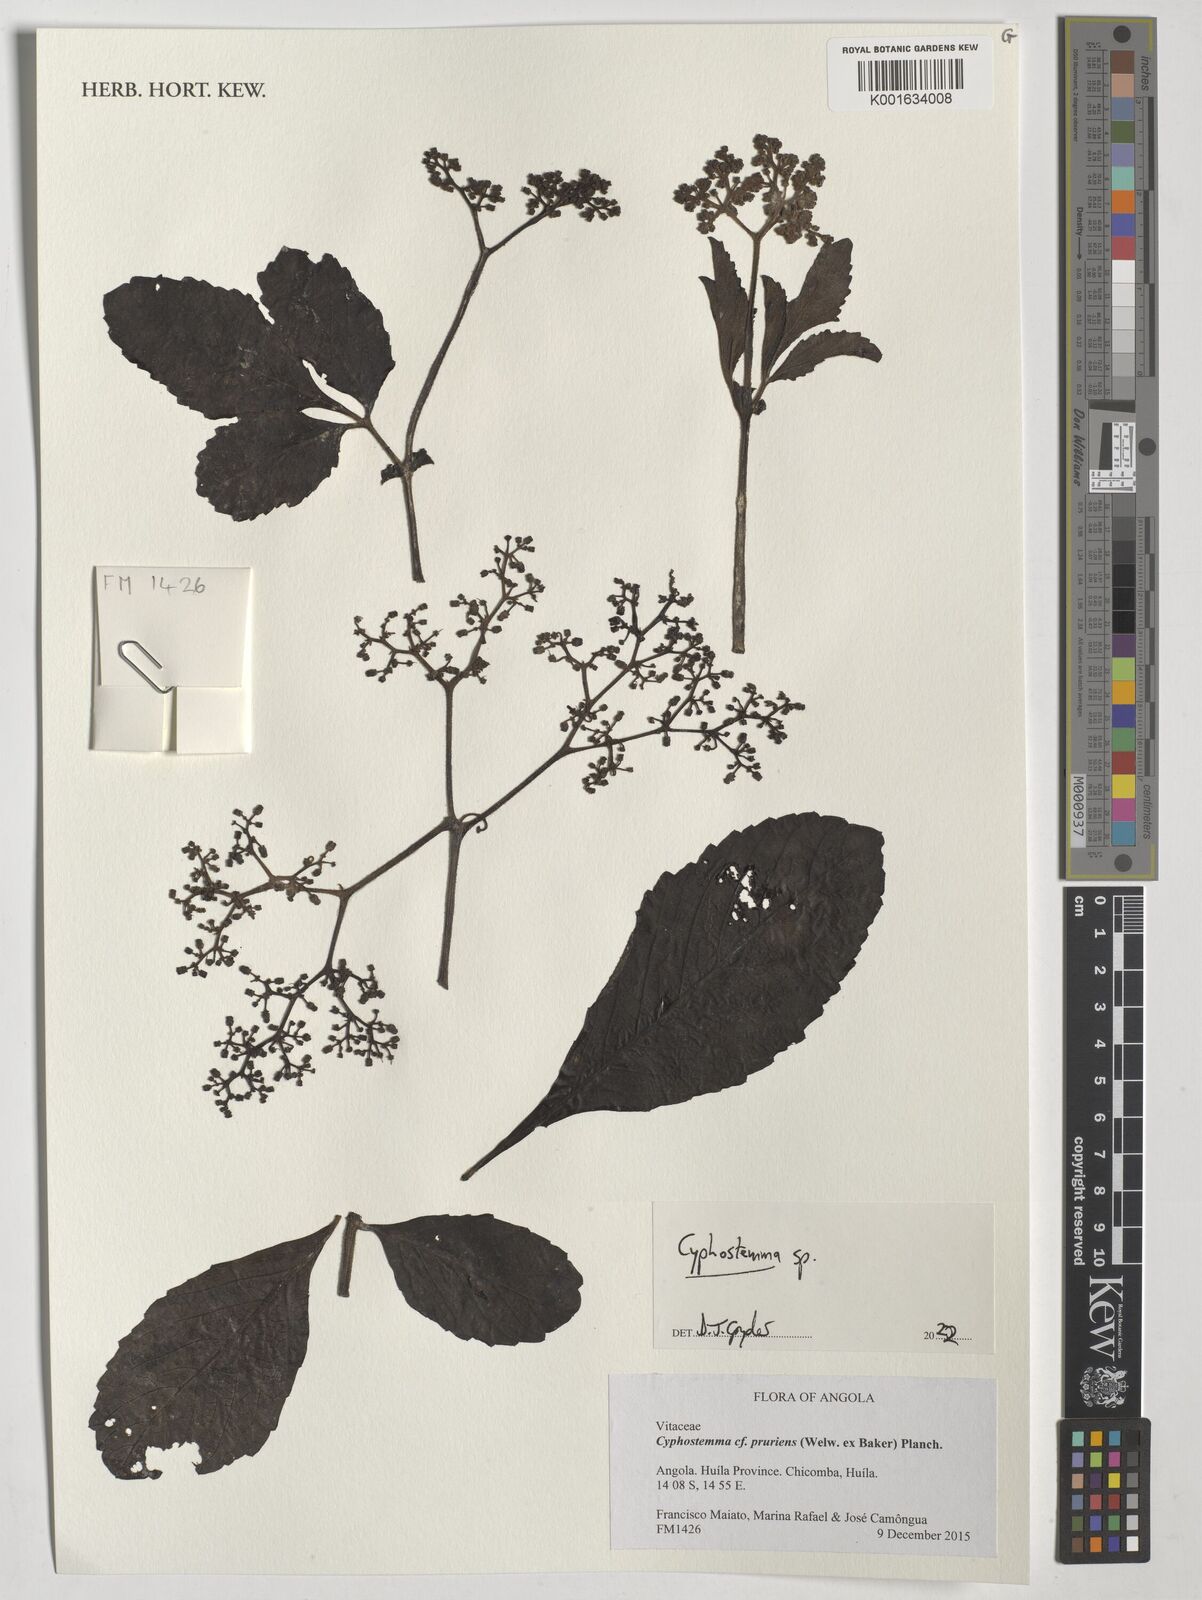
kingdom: Plantae
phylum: Tracheophyta
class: Magnoliopsida
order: Vitales
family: Vitaceae
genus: Cyphostemma
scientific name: Cyphostemma
